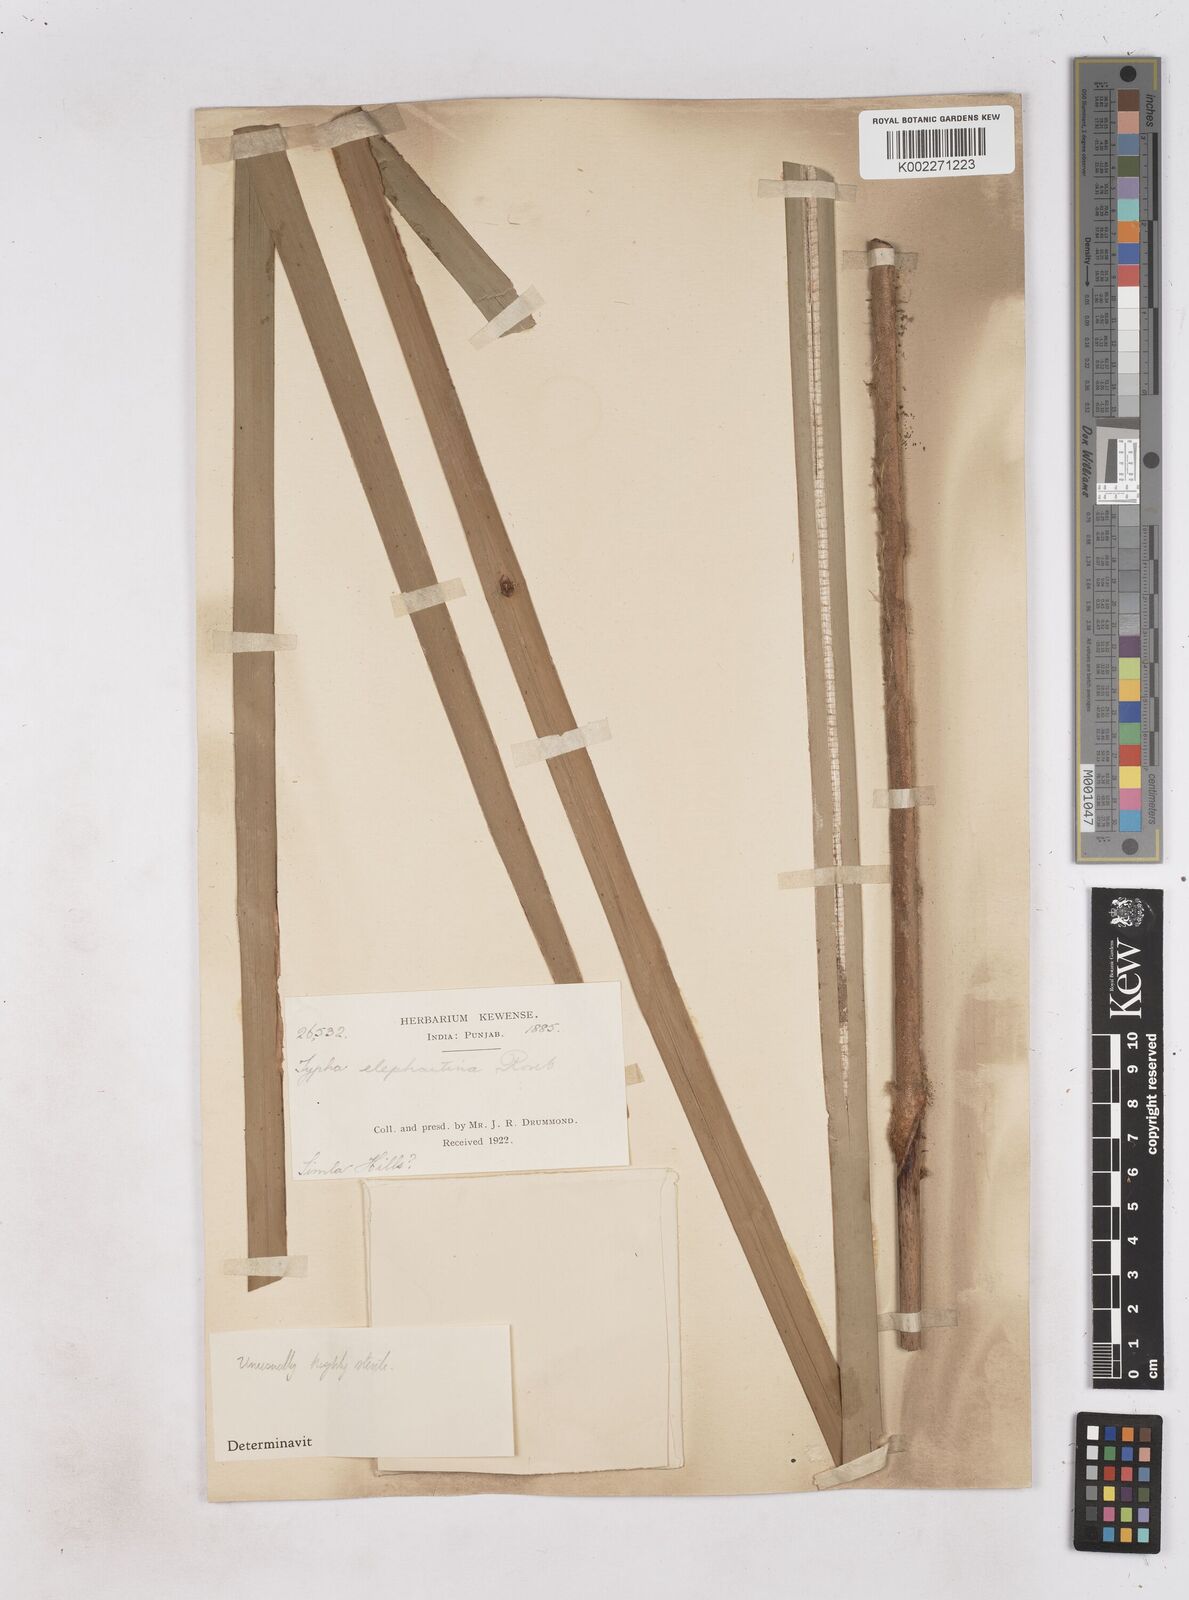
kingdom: Plantae
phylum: Tracheophyta
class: Liliopsida
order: Poales
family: Typhaceae
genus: Typha
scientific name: Typha elephantina
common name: Indian reed-grass
